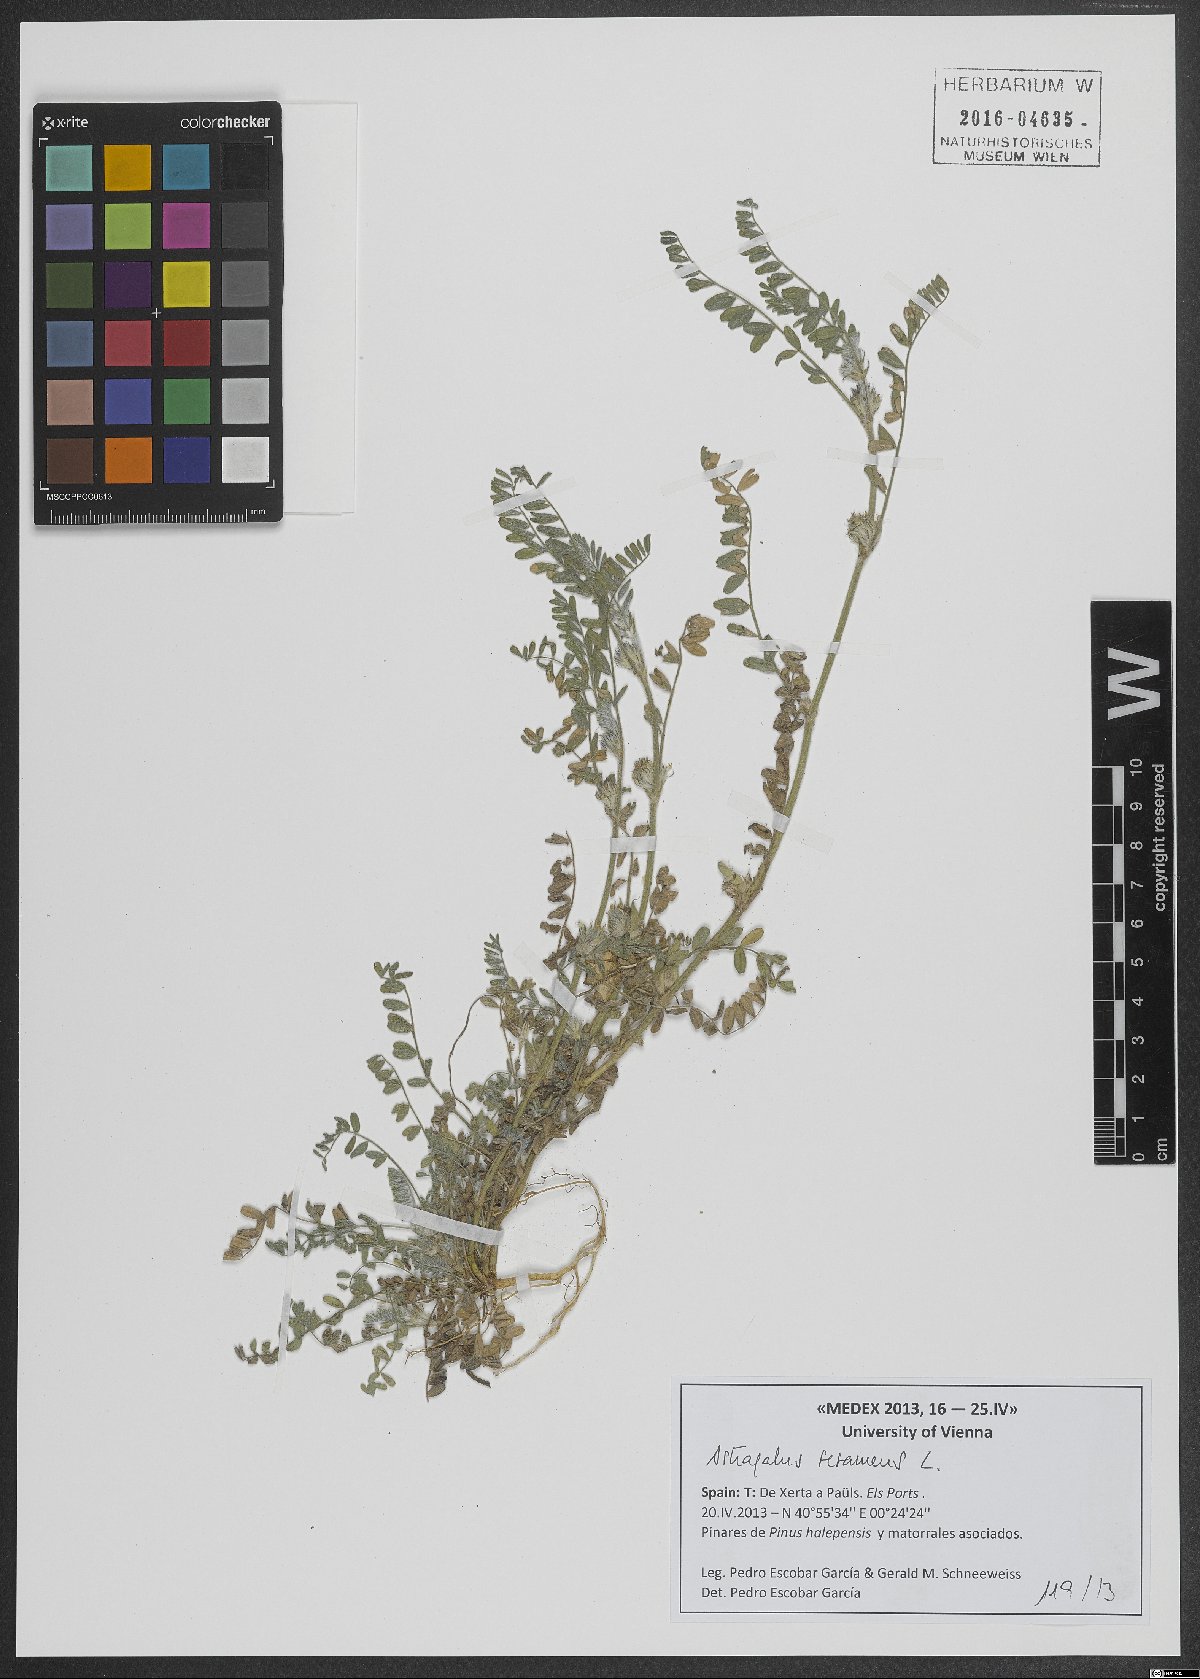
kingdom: Plantae
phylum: Tracheophyta
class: Magnoliopsida
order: Fabales
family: Fabaceae
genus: Astragalus
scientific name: Astragalus sesameus
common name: Purple milk-vetch
